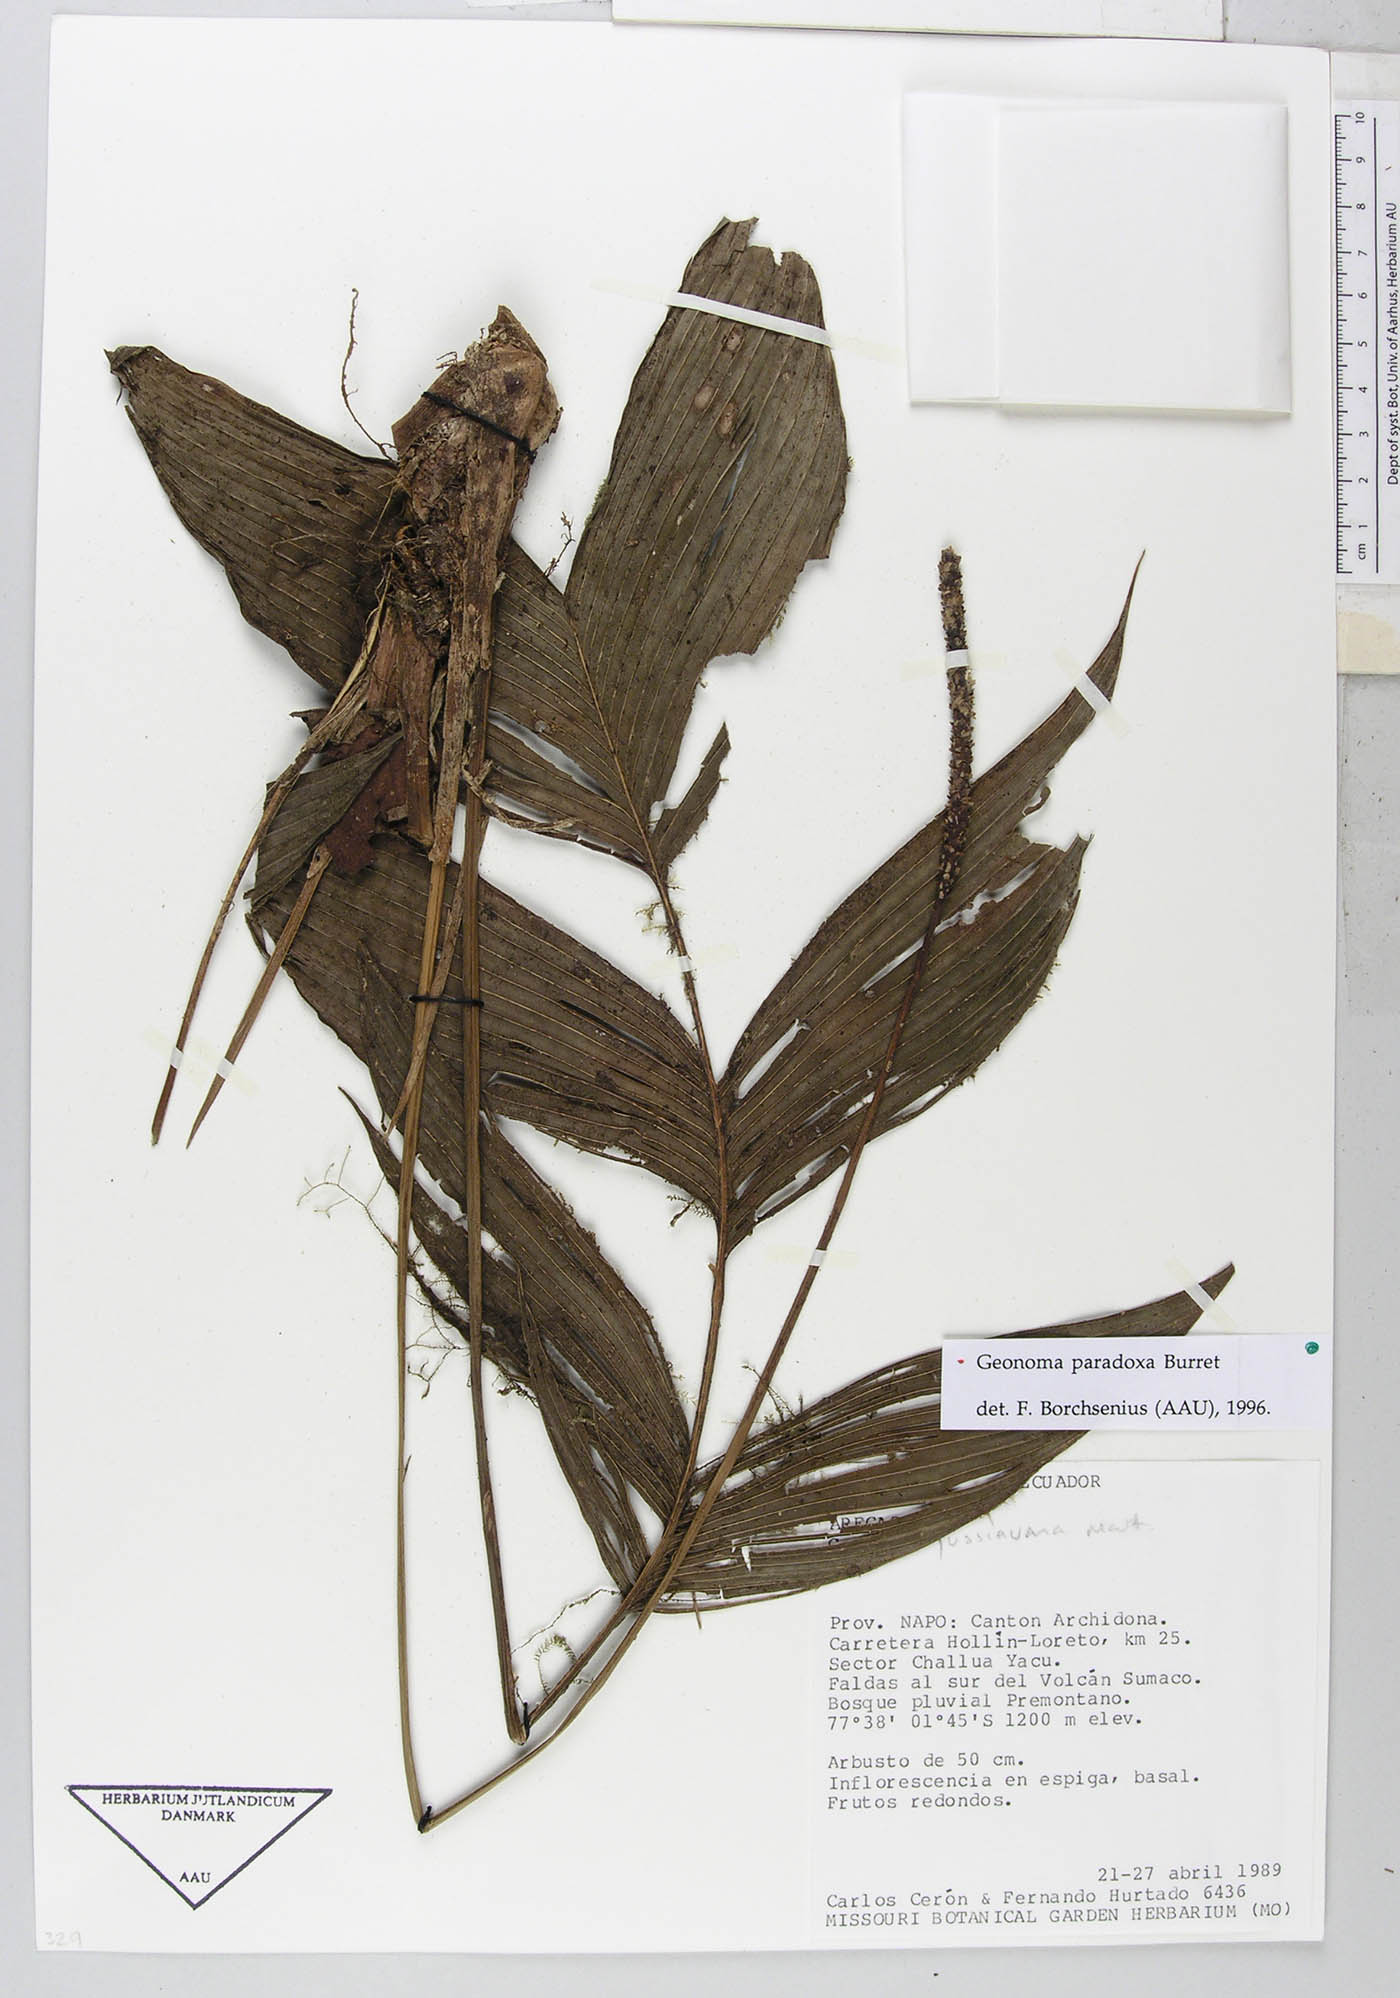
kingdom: Plantae
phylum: Tracheophyta
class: Liliopsida
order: Arecales
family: Arecaceae
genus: Geonoma
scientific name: Geonoma macrostachys
